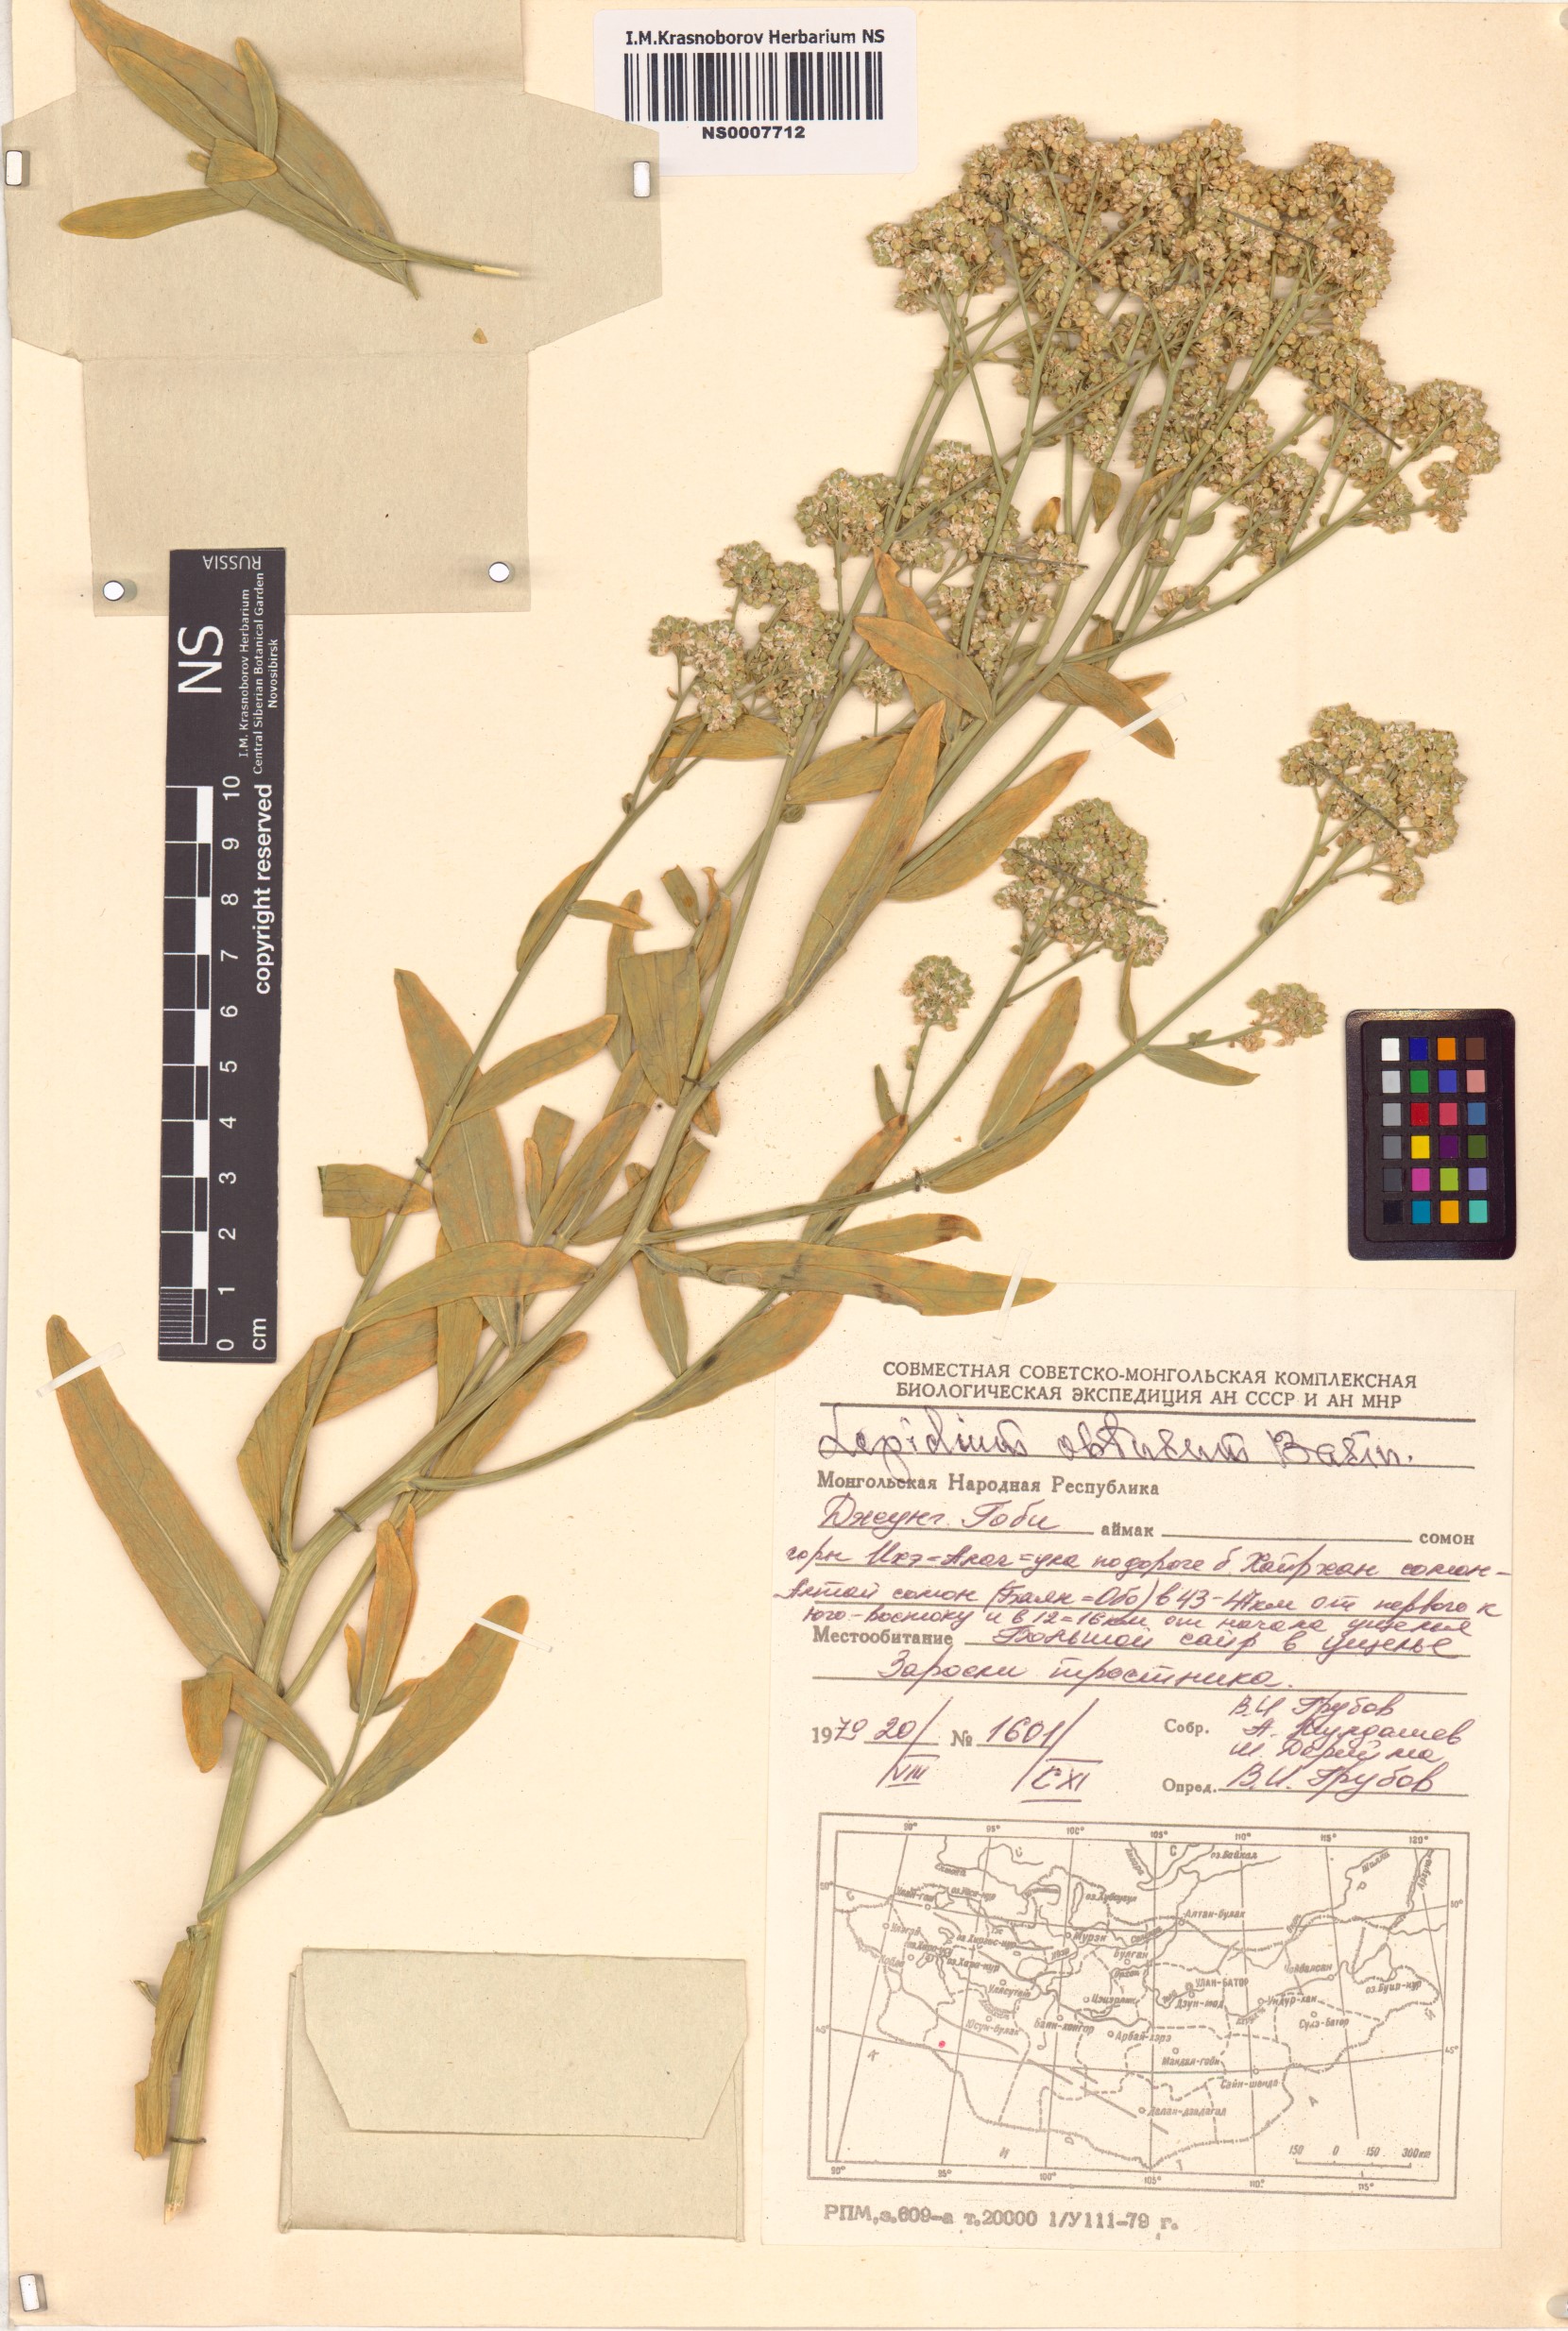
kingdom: Plantae
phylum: Tracheophyta
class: Magnoliopsida
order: Brassicales
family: Brassicaceae
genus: Lepidium
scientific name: Lepidium obtusum
